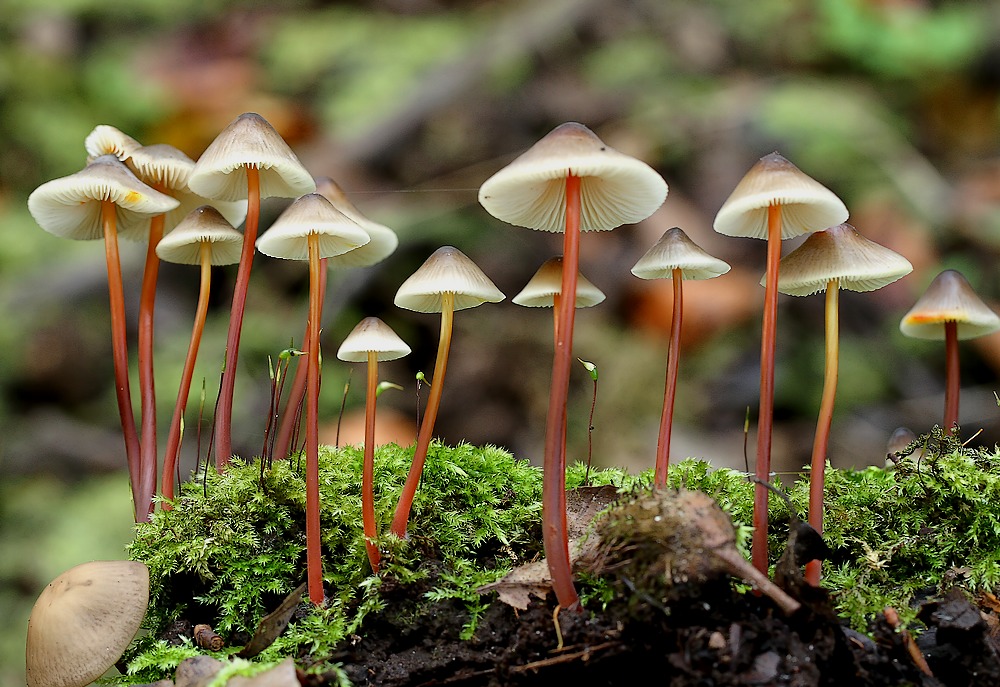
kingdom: Fungi
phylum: Basidiomycota
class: Agaricomycetes
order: Agaricales
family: Mycenaceae
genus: Mycena
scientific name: Mycena crocata
